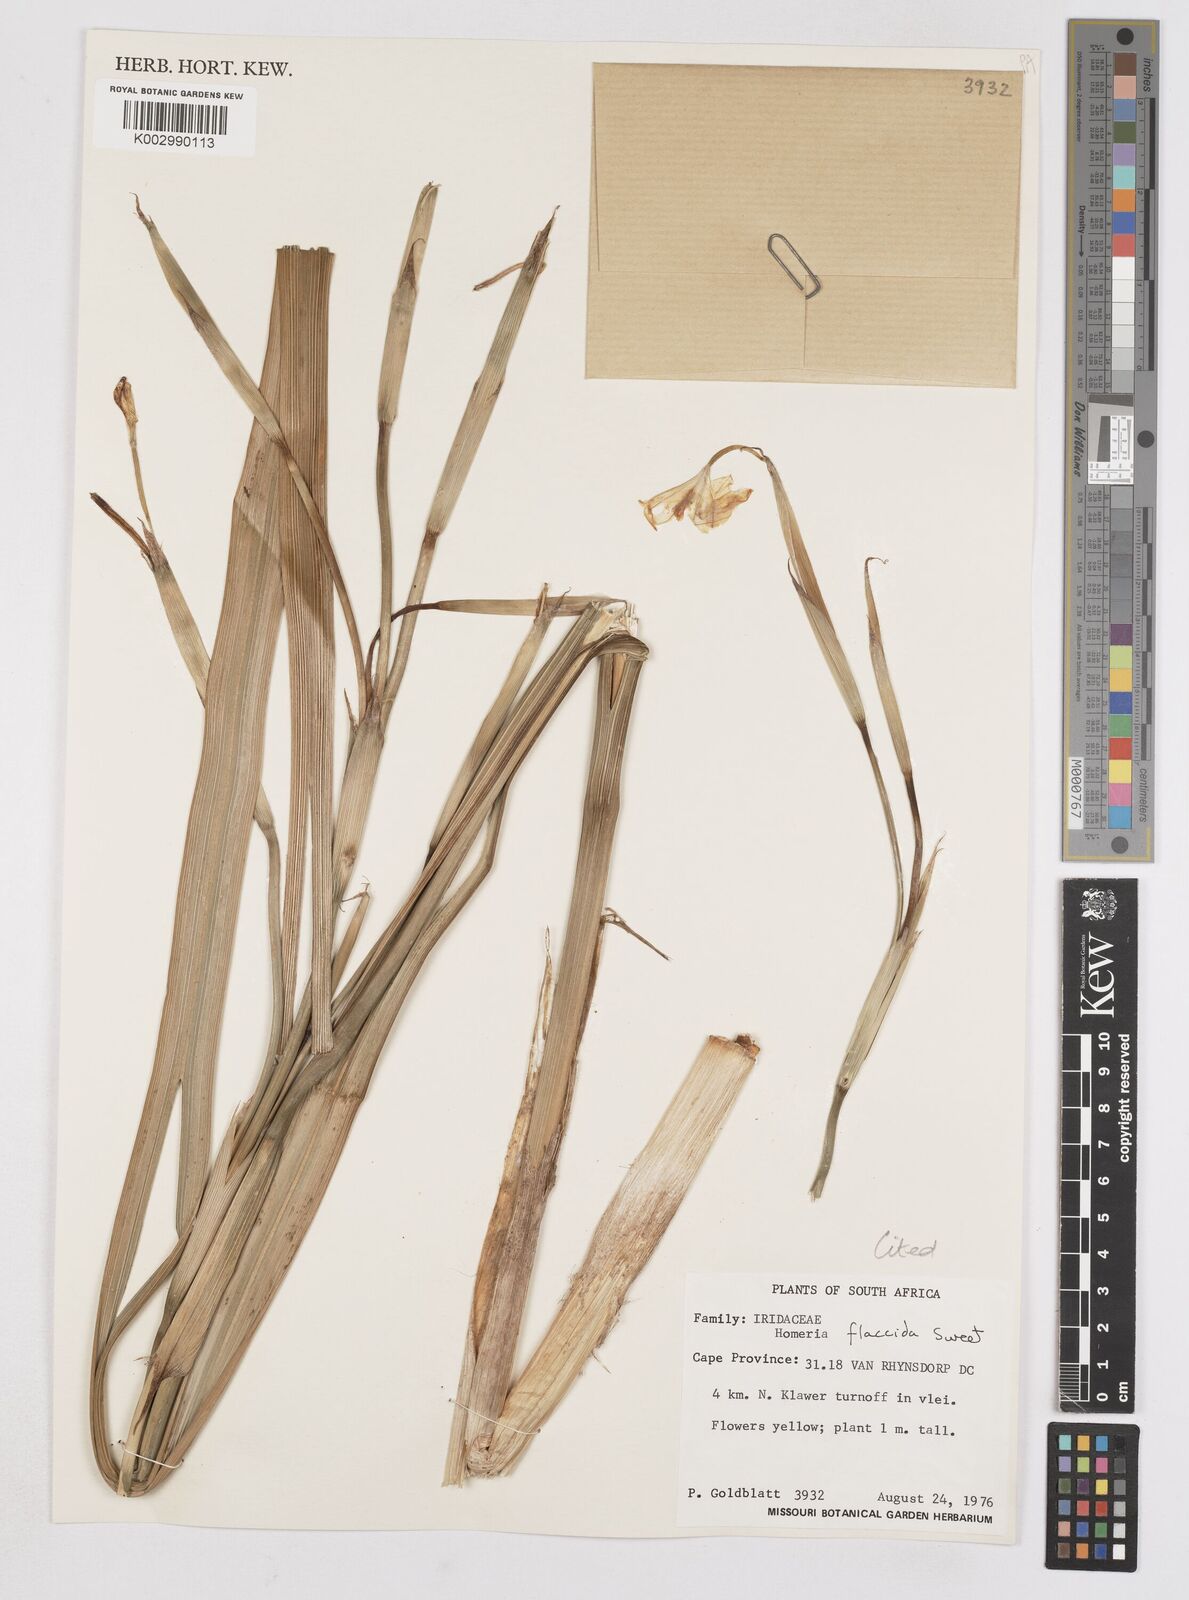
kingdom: Plantae
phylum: Tracheophyta
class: Liliopsida
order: Asparagales
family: Iridaceae
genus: Moraea
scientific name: Moraea flaccida
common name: One-leaf cape-tulip
